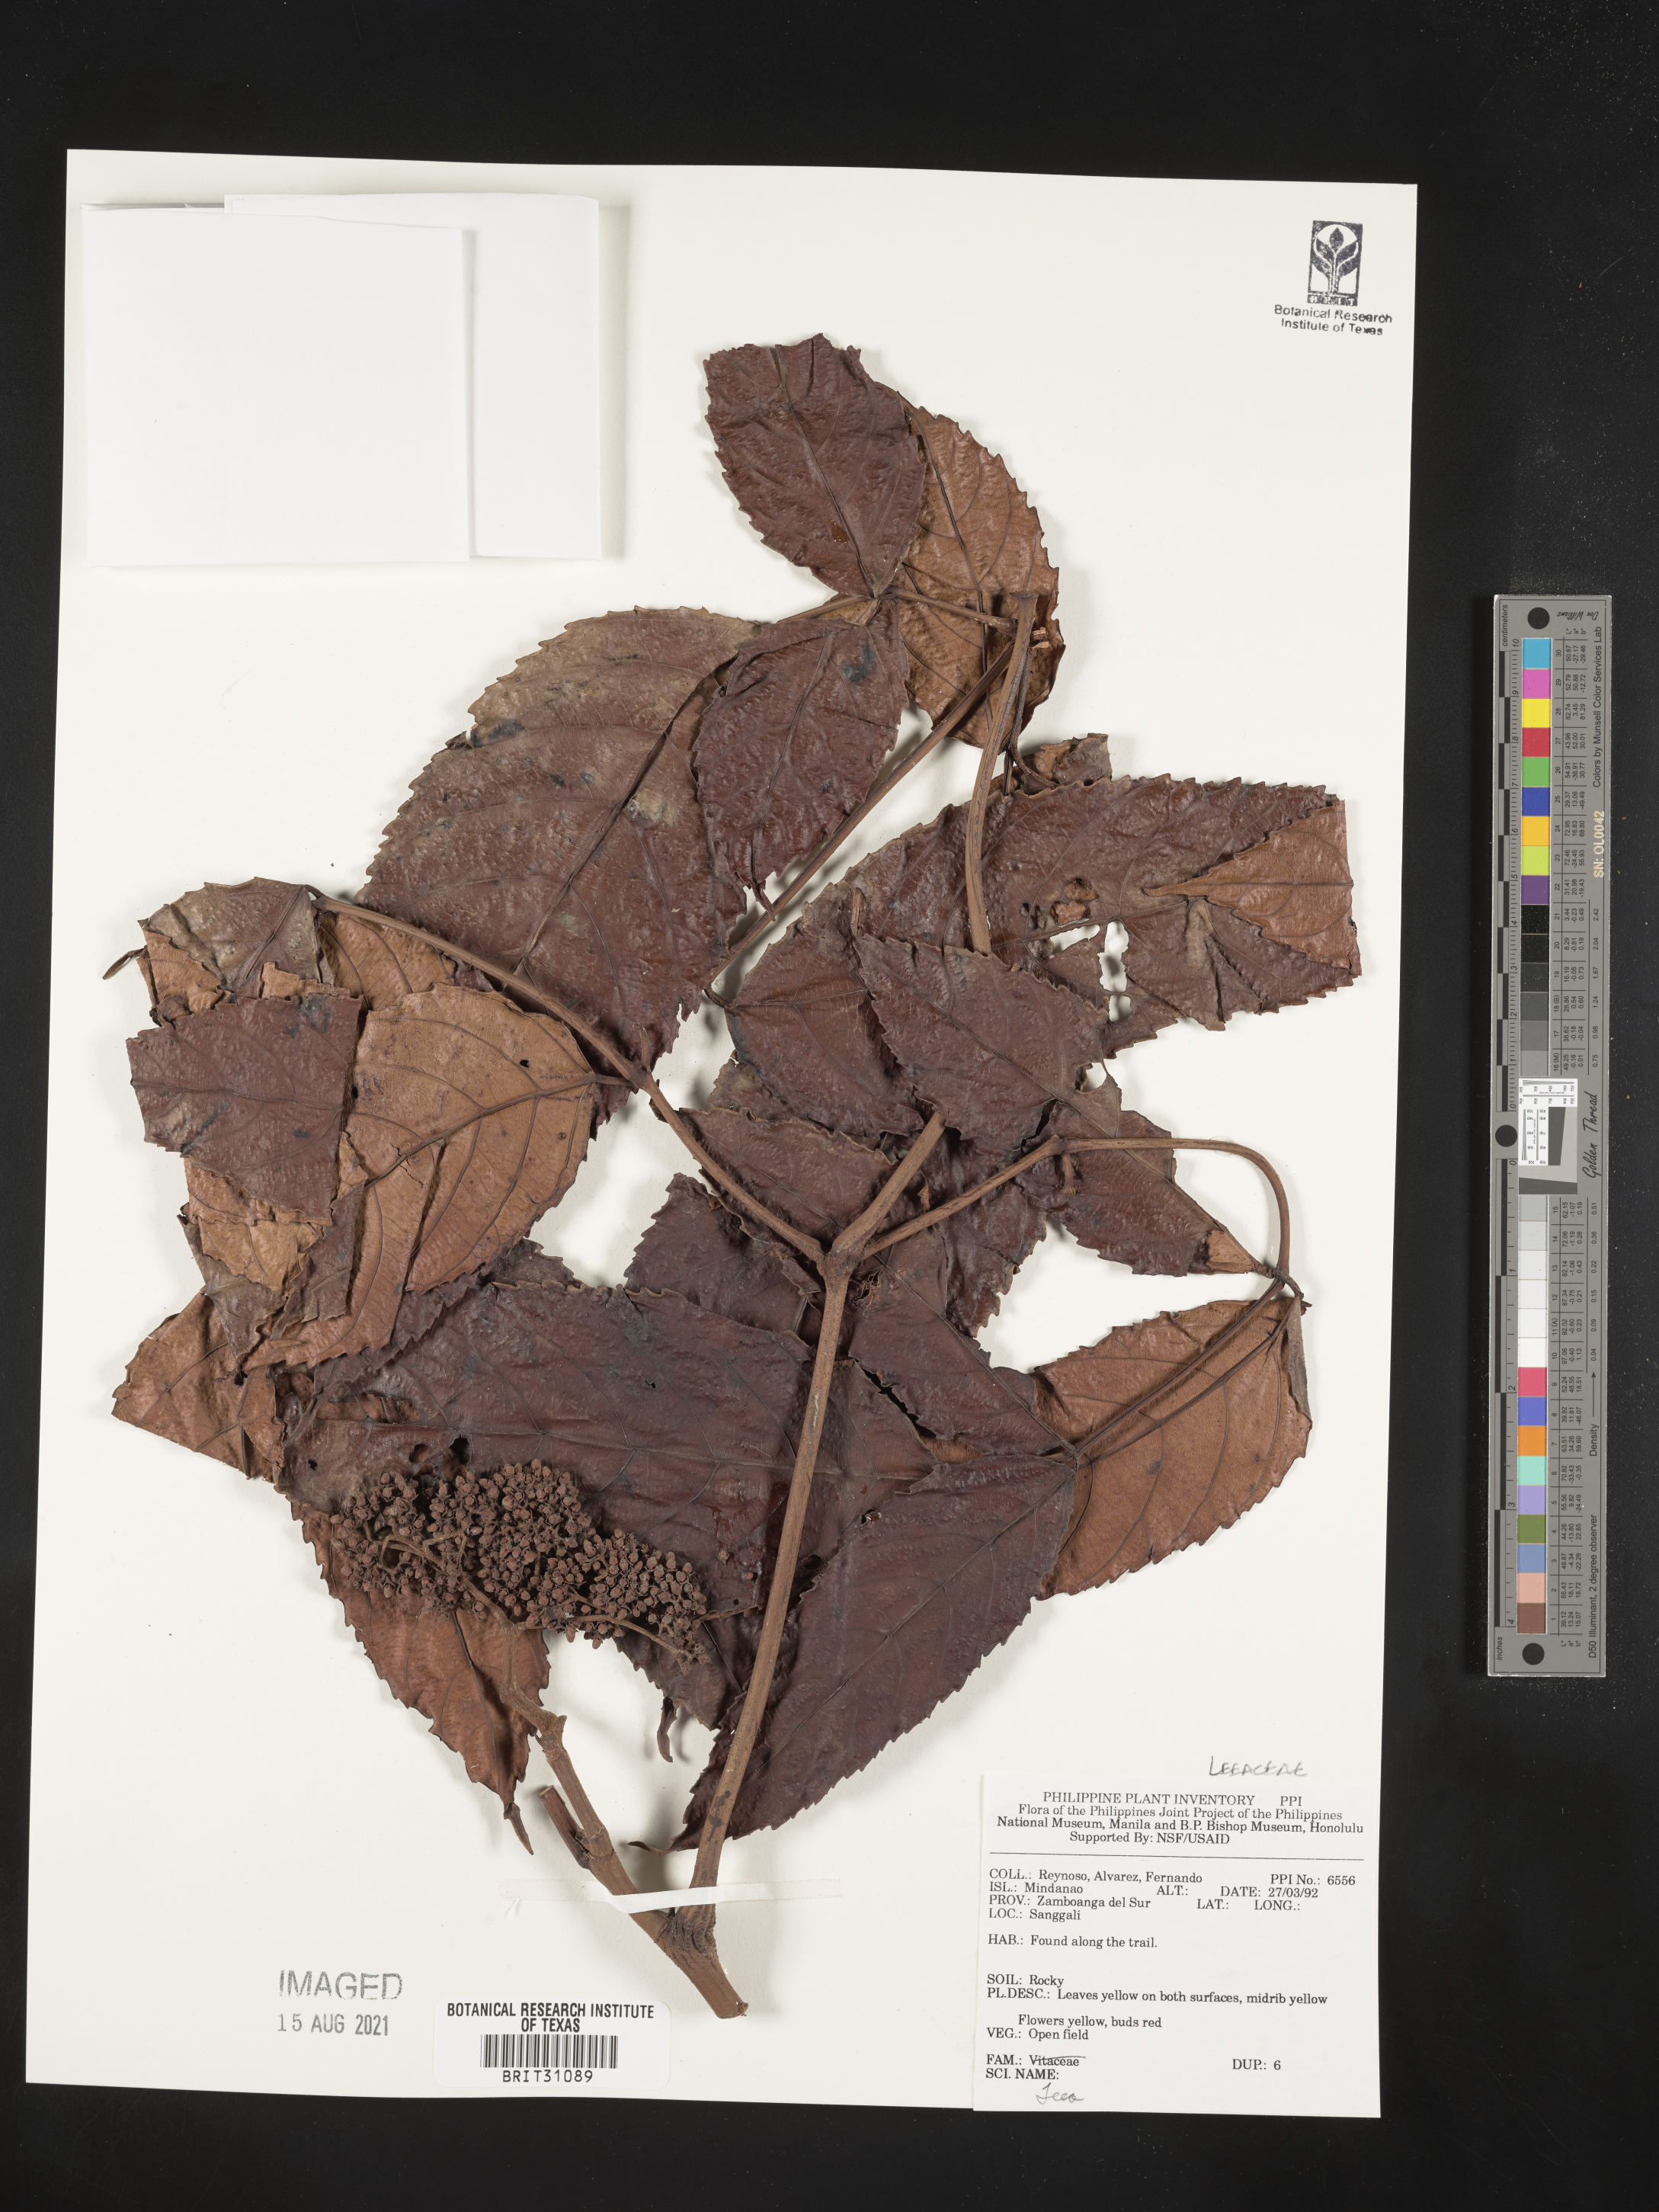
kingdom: Plantae
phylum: Tracheophyta
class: Magnoliopsida
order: Vitales
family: Vitaceae
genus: Leea
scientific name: Leea
